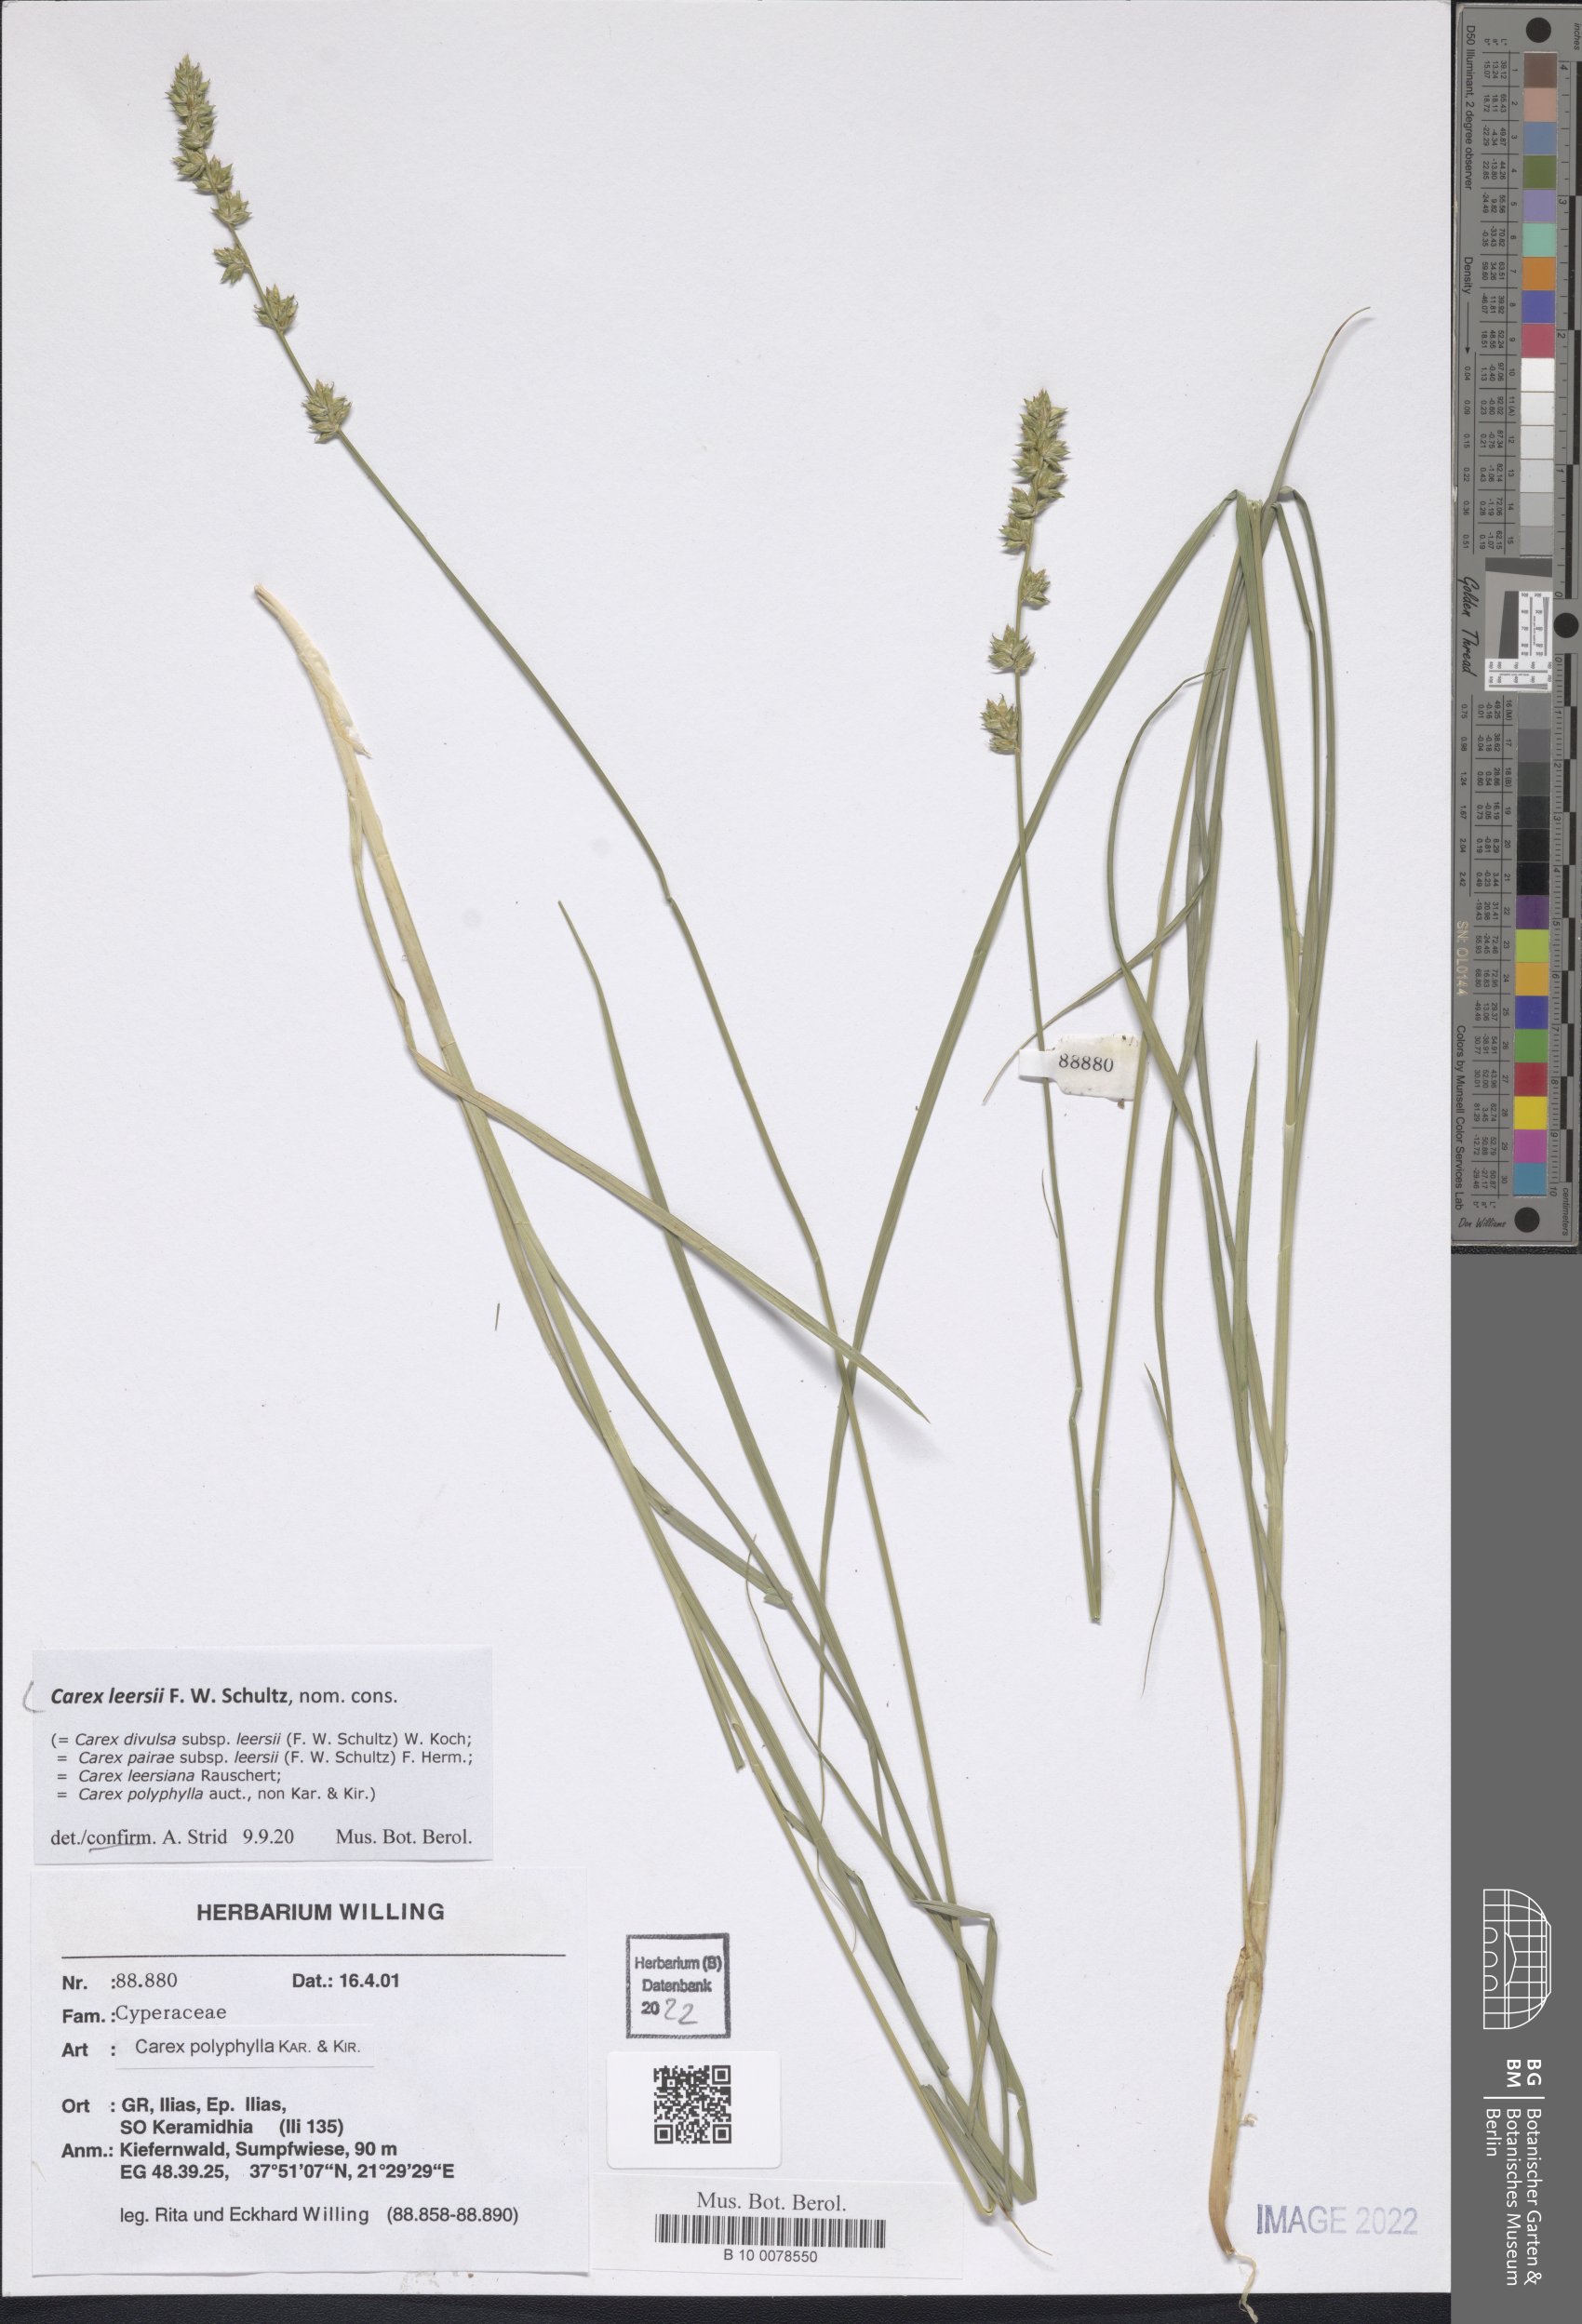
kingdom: Plantae
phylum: Tracheophyta
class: Liliopsida
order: Poales
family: Cyperaceae
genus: Carex
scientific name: Carex leersii
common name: Leers' sedge
